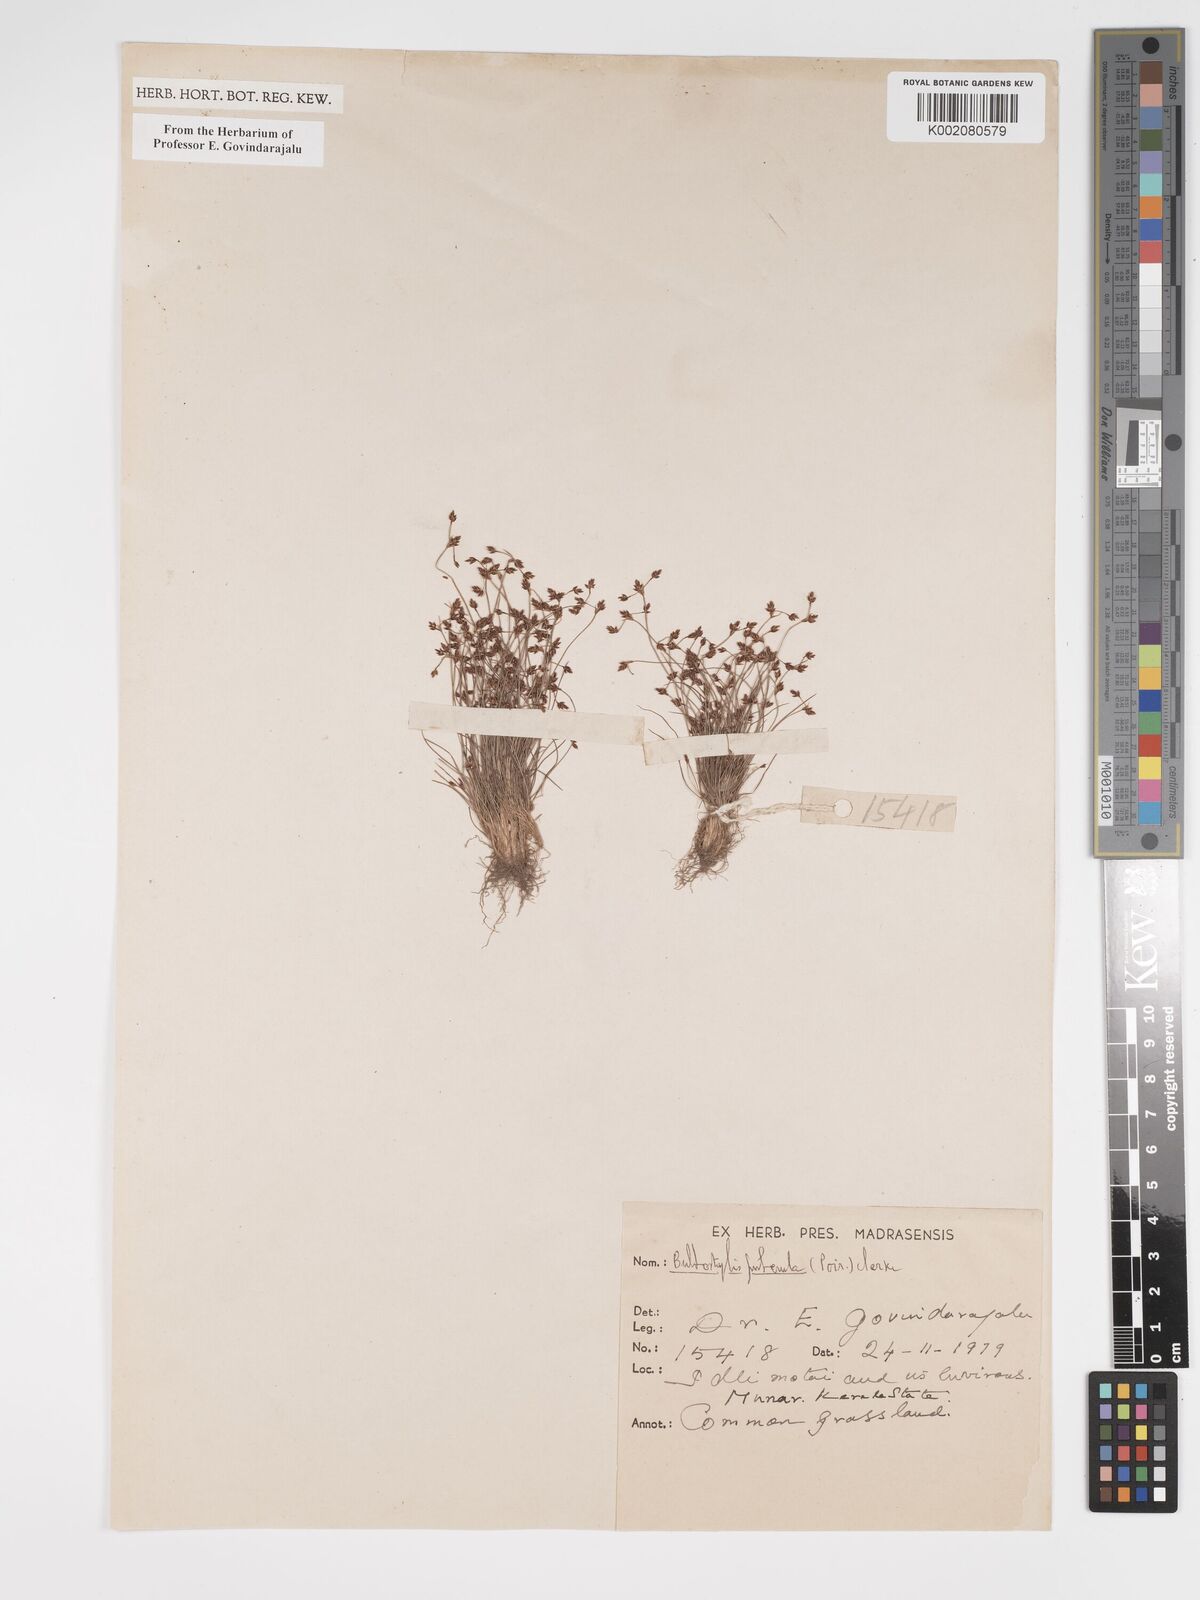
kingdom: Plantae
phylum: Tracheophyta
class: Liliopsida
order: Poales
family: Cyperaceae
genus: Bulbostylis
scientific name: Bulbostylis thouarsii
